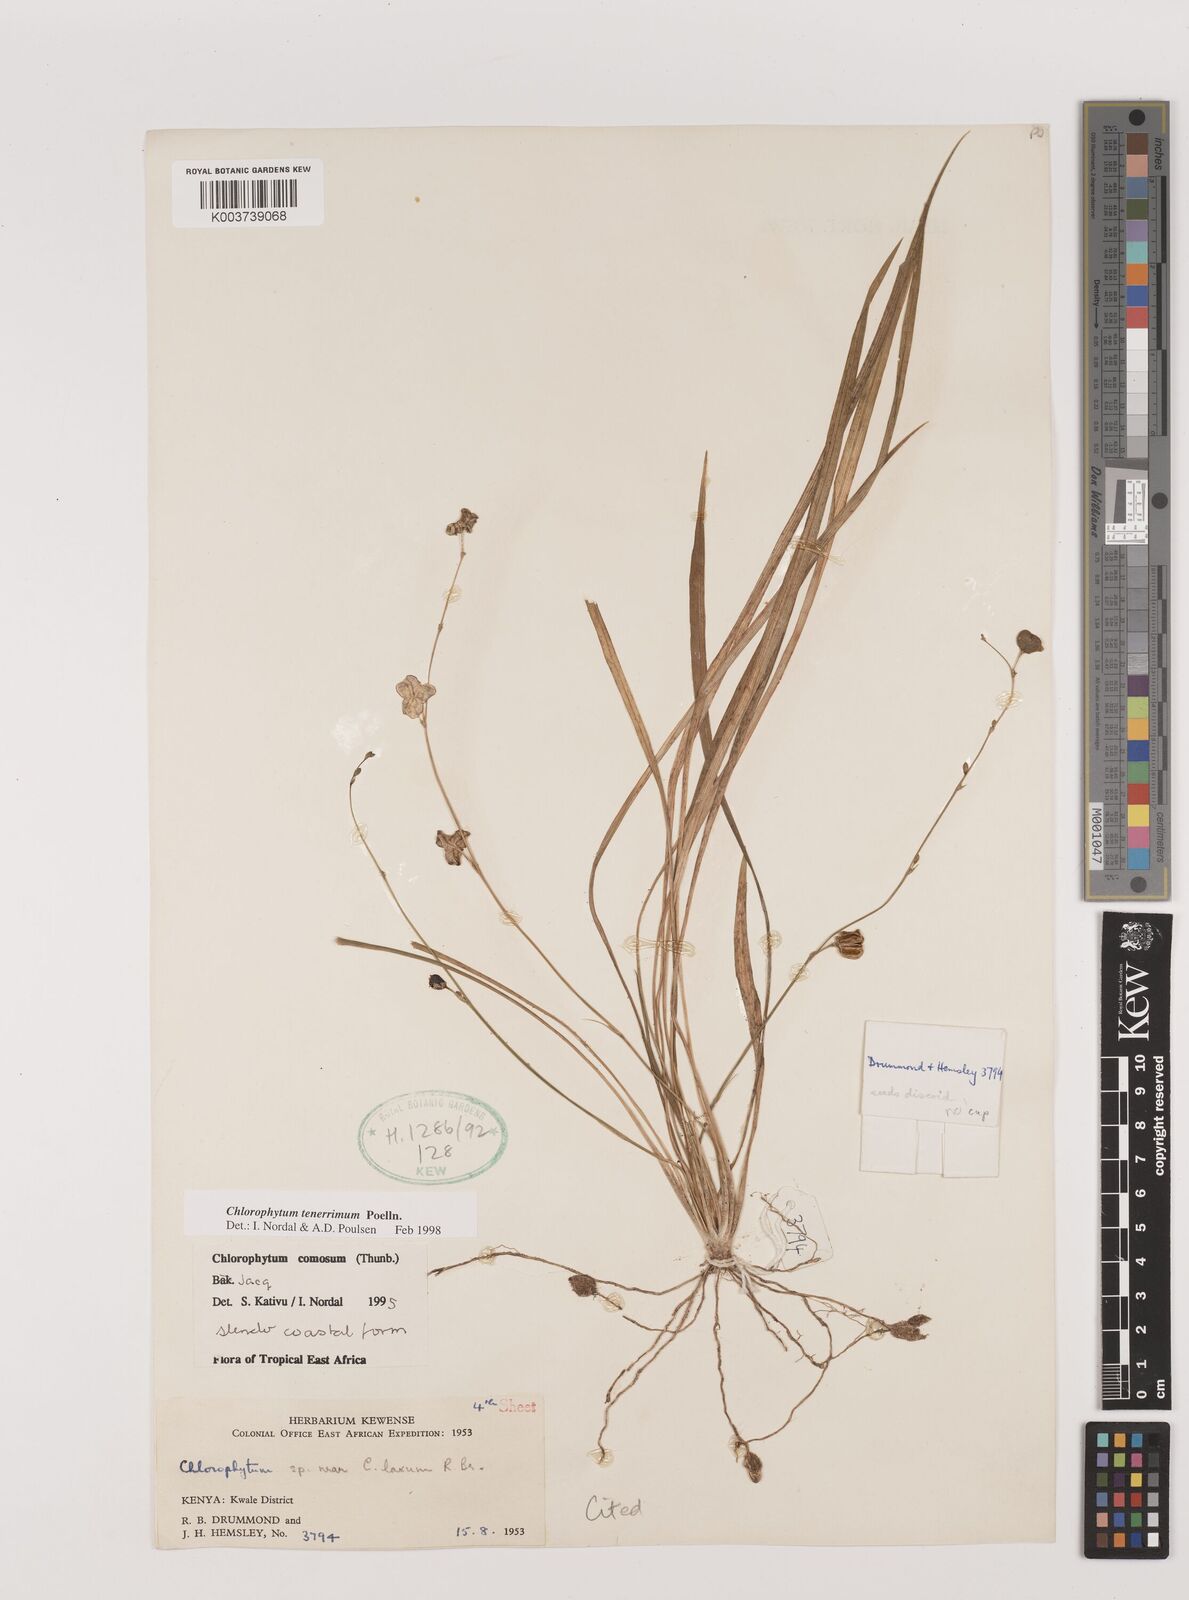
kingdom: Plantae
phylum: Tracheophyta
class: Liliopsida
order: Asparagales
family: Asparagaceae
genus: Chlorophytum
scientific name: Chlorophytum tenerrimum
